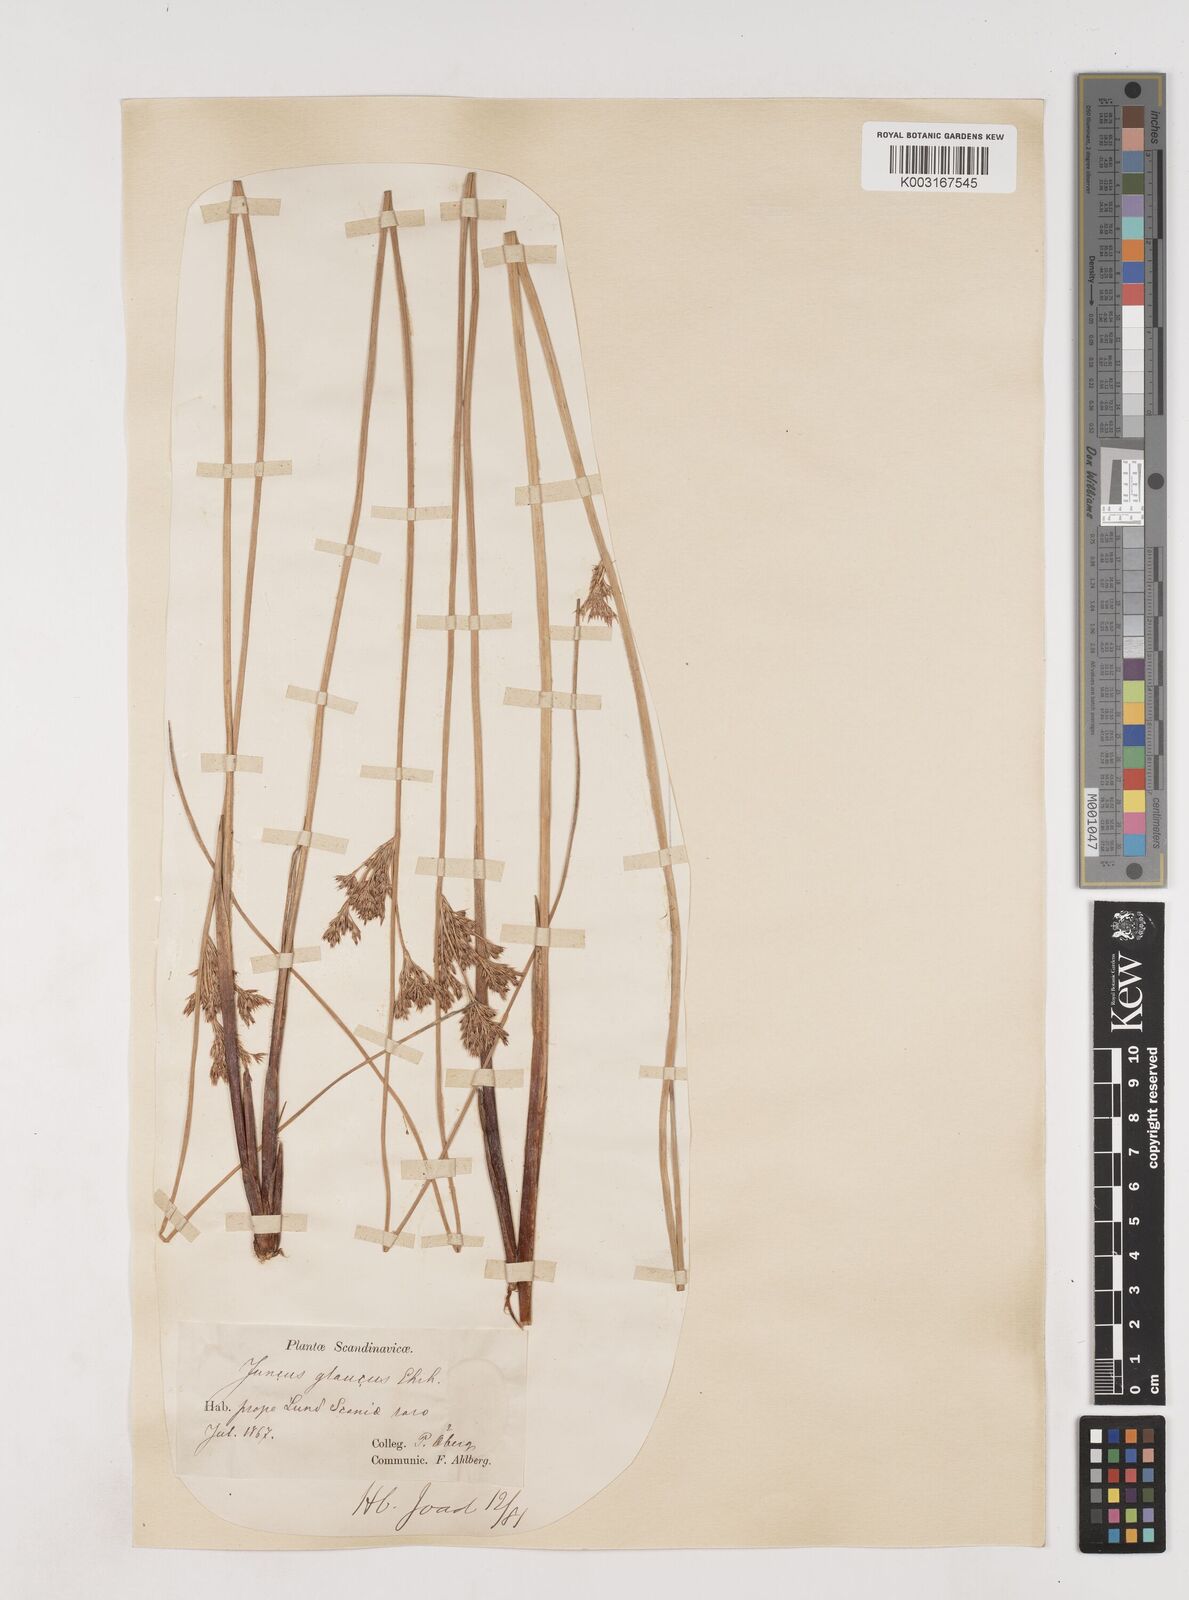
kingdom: Plantae
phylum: Tracheophyta
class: Liliopsida
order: Poales
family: Juncaceae
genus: Juncus
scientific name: Juncus inflexus
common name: Hard rush
